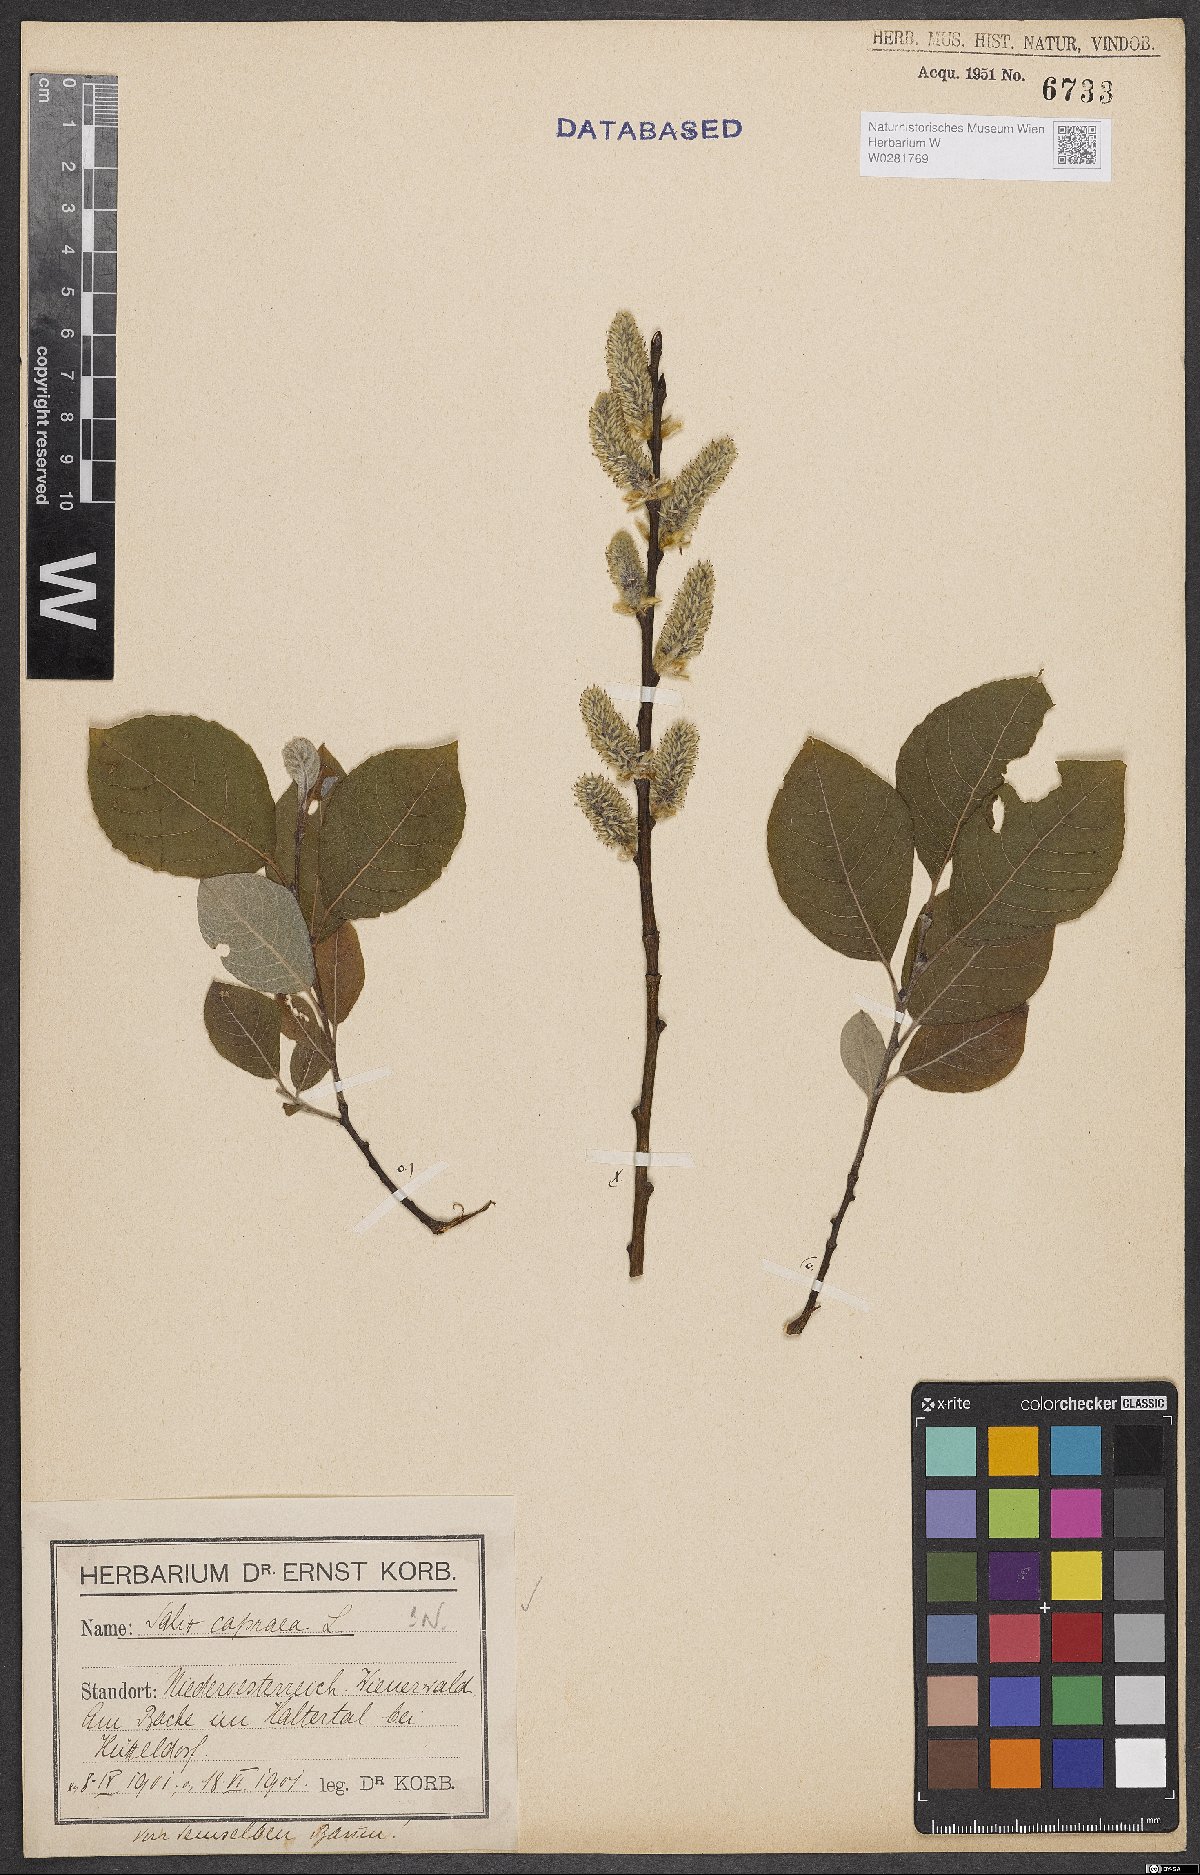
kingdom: Plantae
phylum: Tracheophyta
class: Magnoliopsida
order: Malpighiales
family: Salicaceae
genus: Salix
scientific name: Salix caprea
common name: Goat willow
